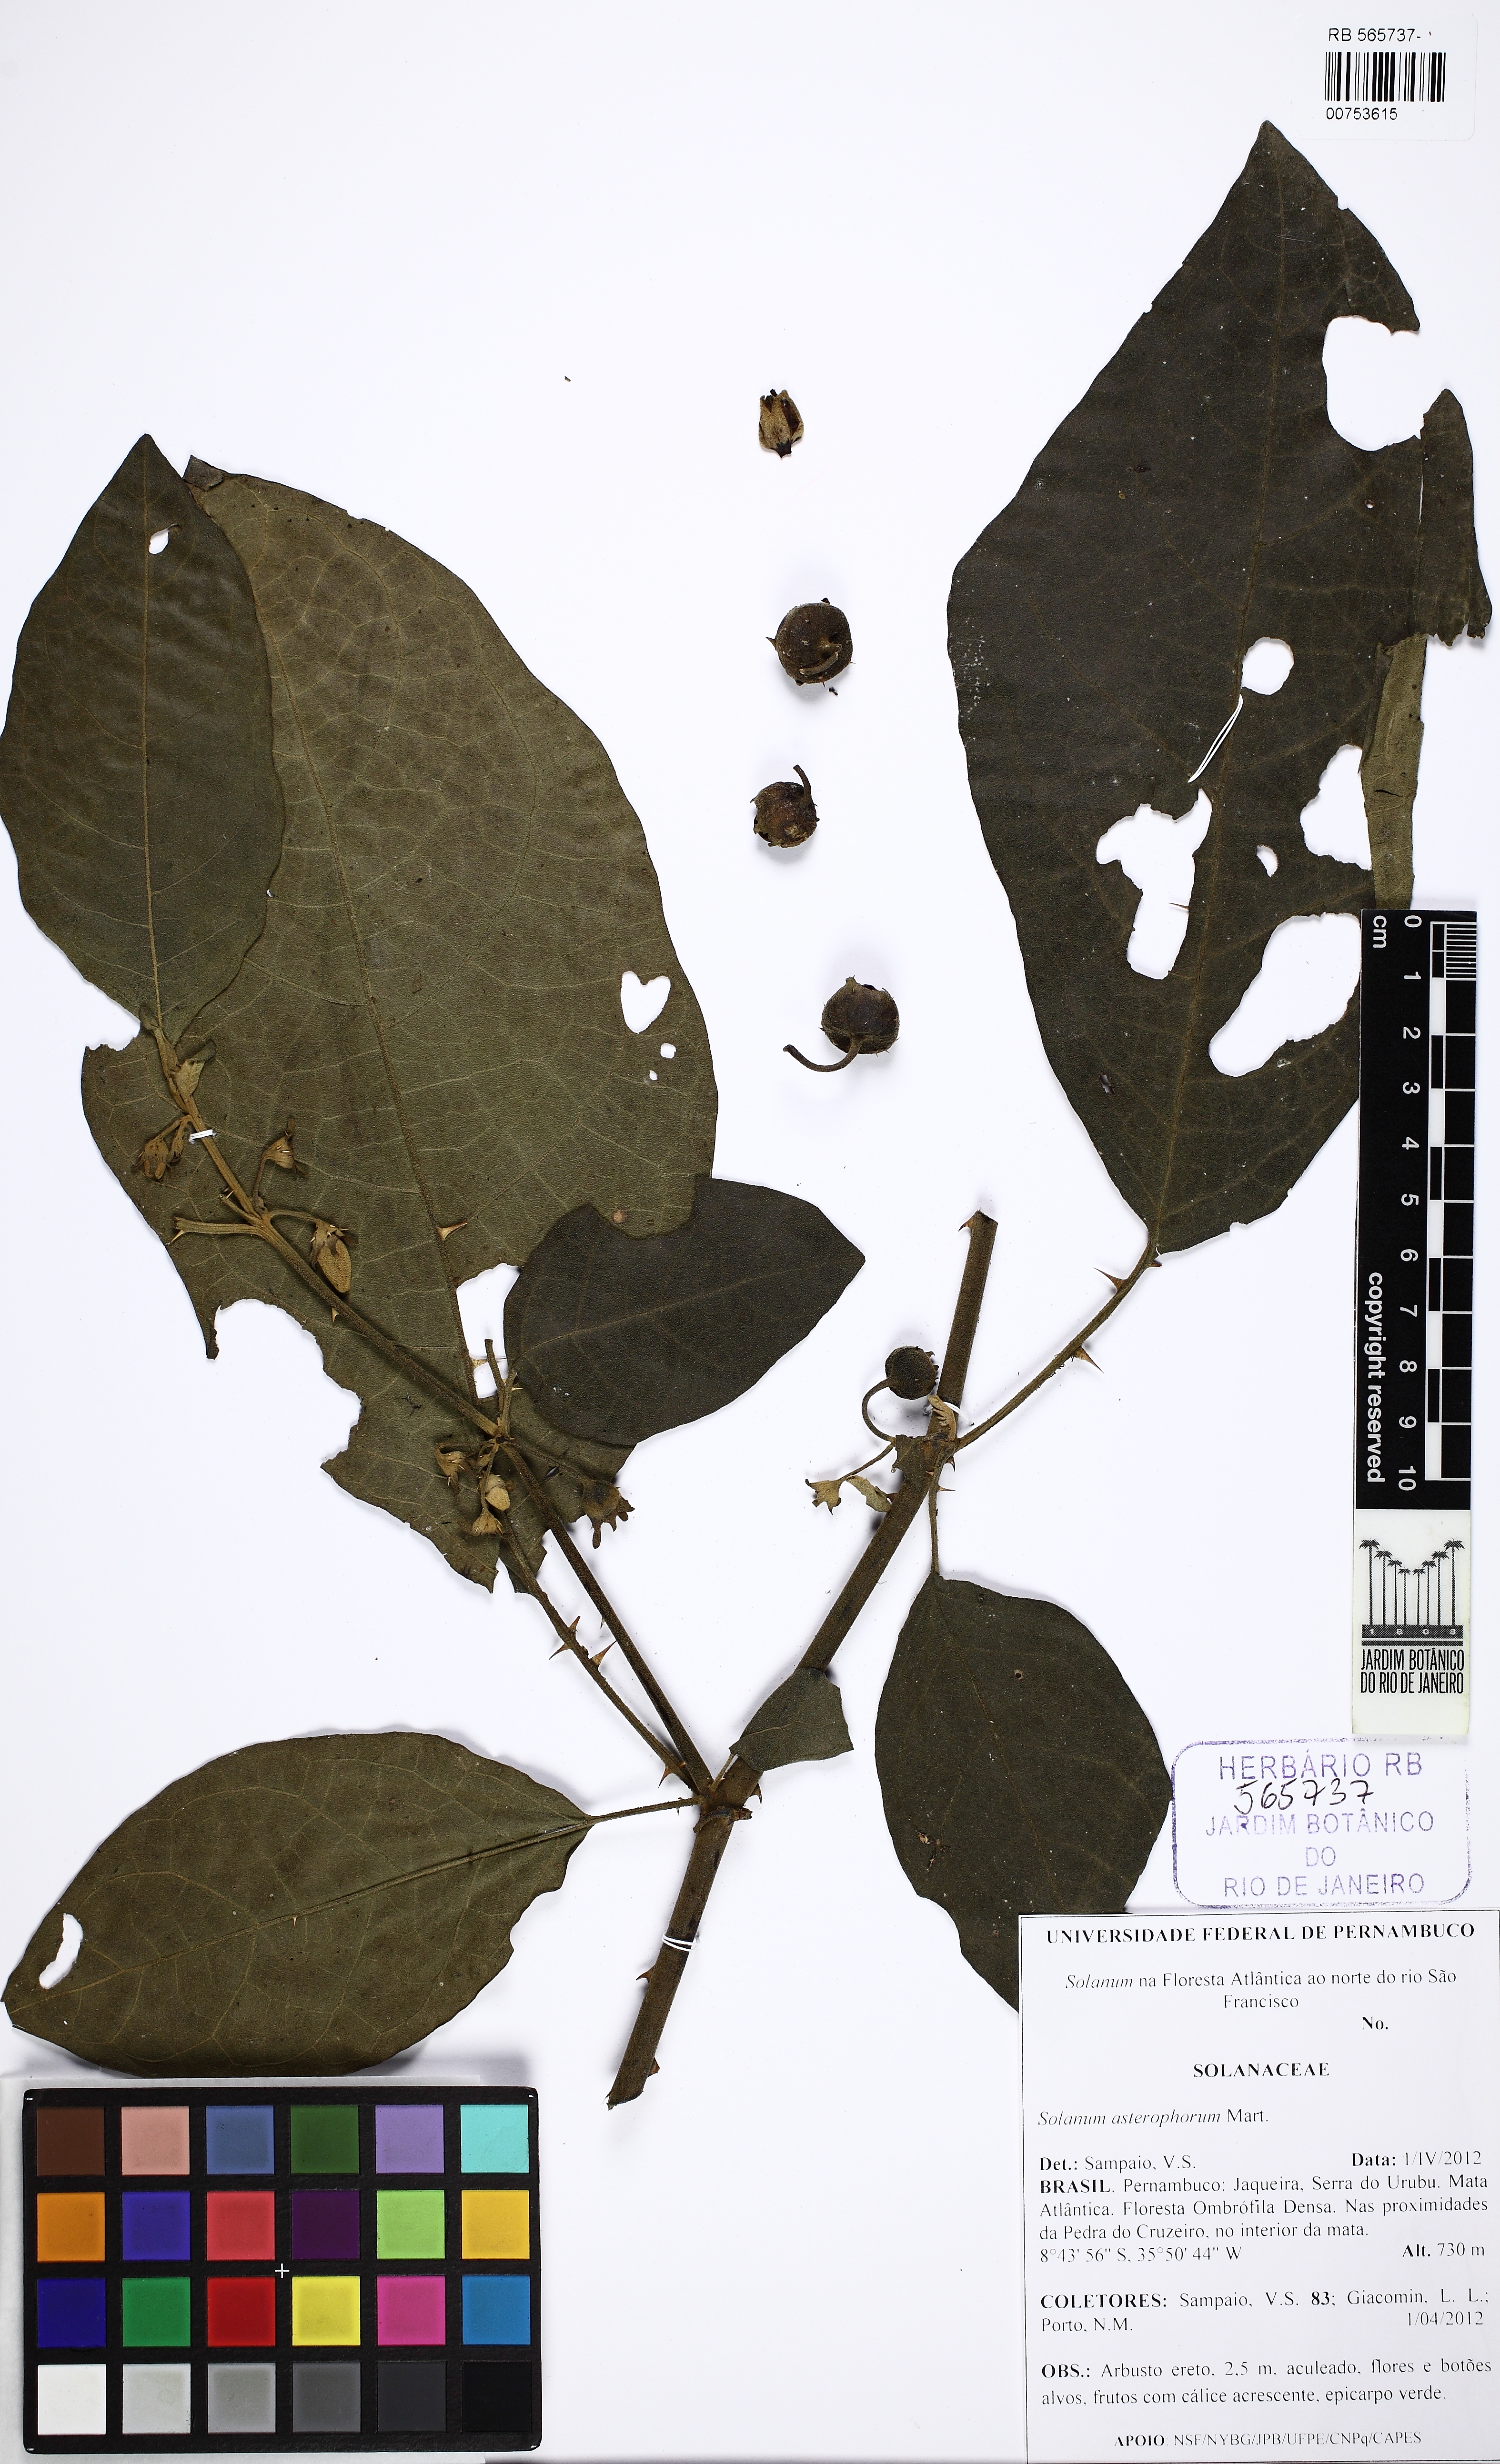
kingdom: Plantae
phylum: Tracheophyta
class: Magnoliopsida
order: Solanales
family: Solanaceae
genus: Solanum
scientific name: Solanum asterophorum
